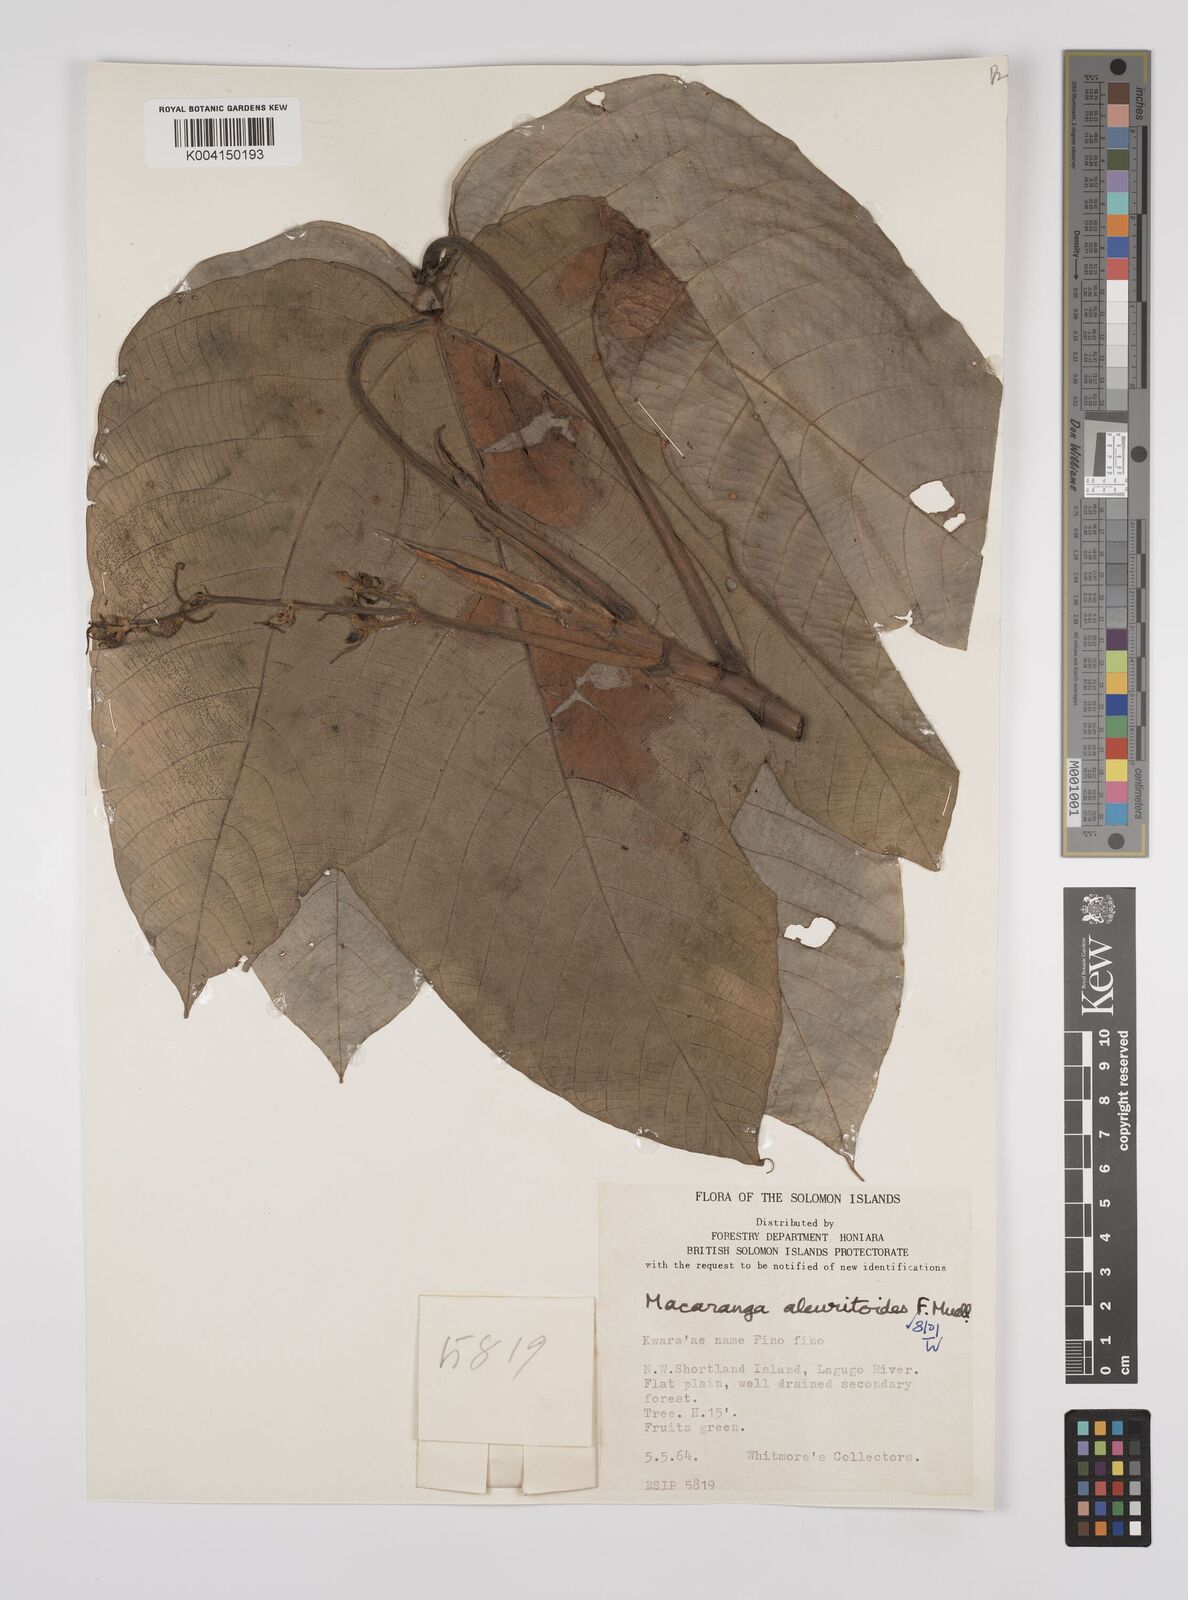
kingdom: Plantae
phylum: Tracheophyta
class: Magnoliopsida
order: Malpighiales
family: Euphorbiaceae
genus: Macaranga
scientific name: Macaranga aleuritoides
